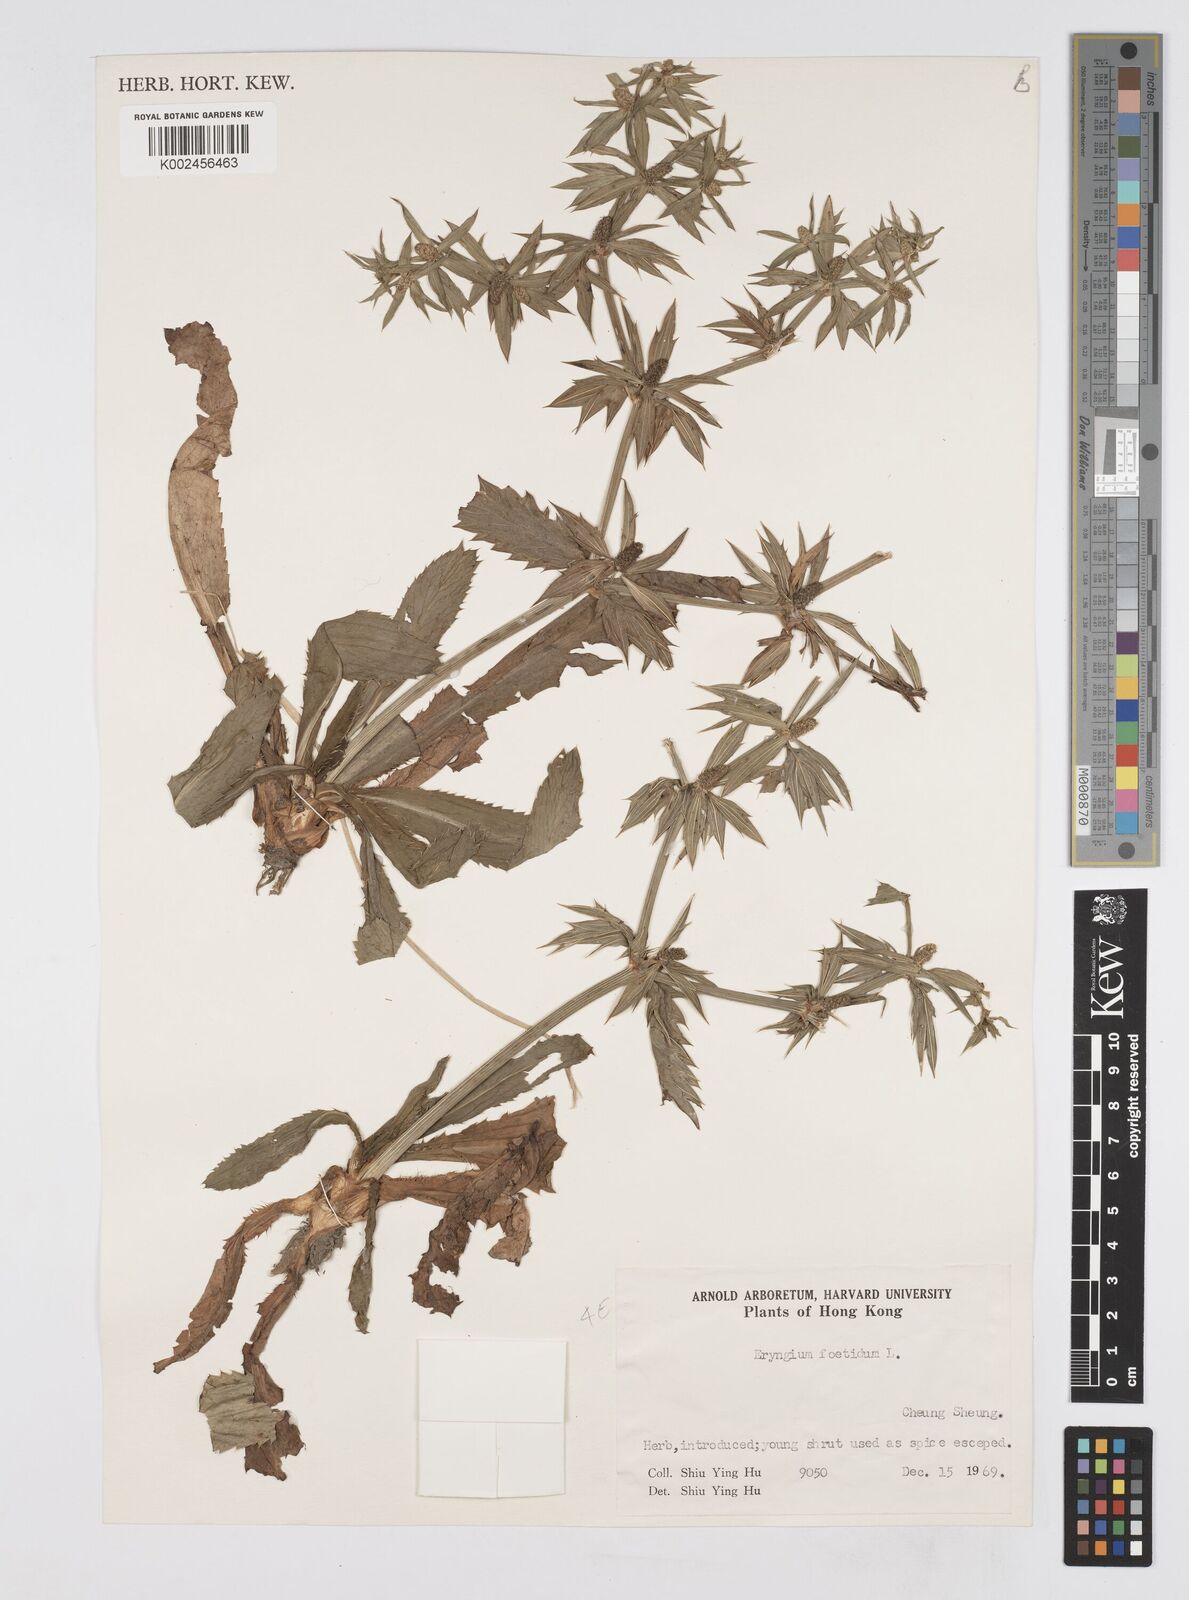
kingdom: Plantae
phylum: Tracheophyta
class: Magnoliopsida
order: Apiales
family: Apiaceae
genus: Eryngium
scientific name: Eryngium foetidum
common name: Fitweed
